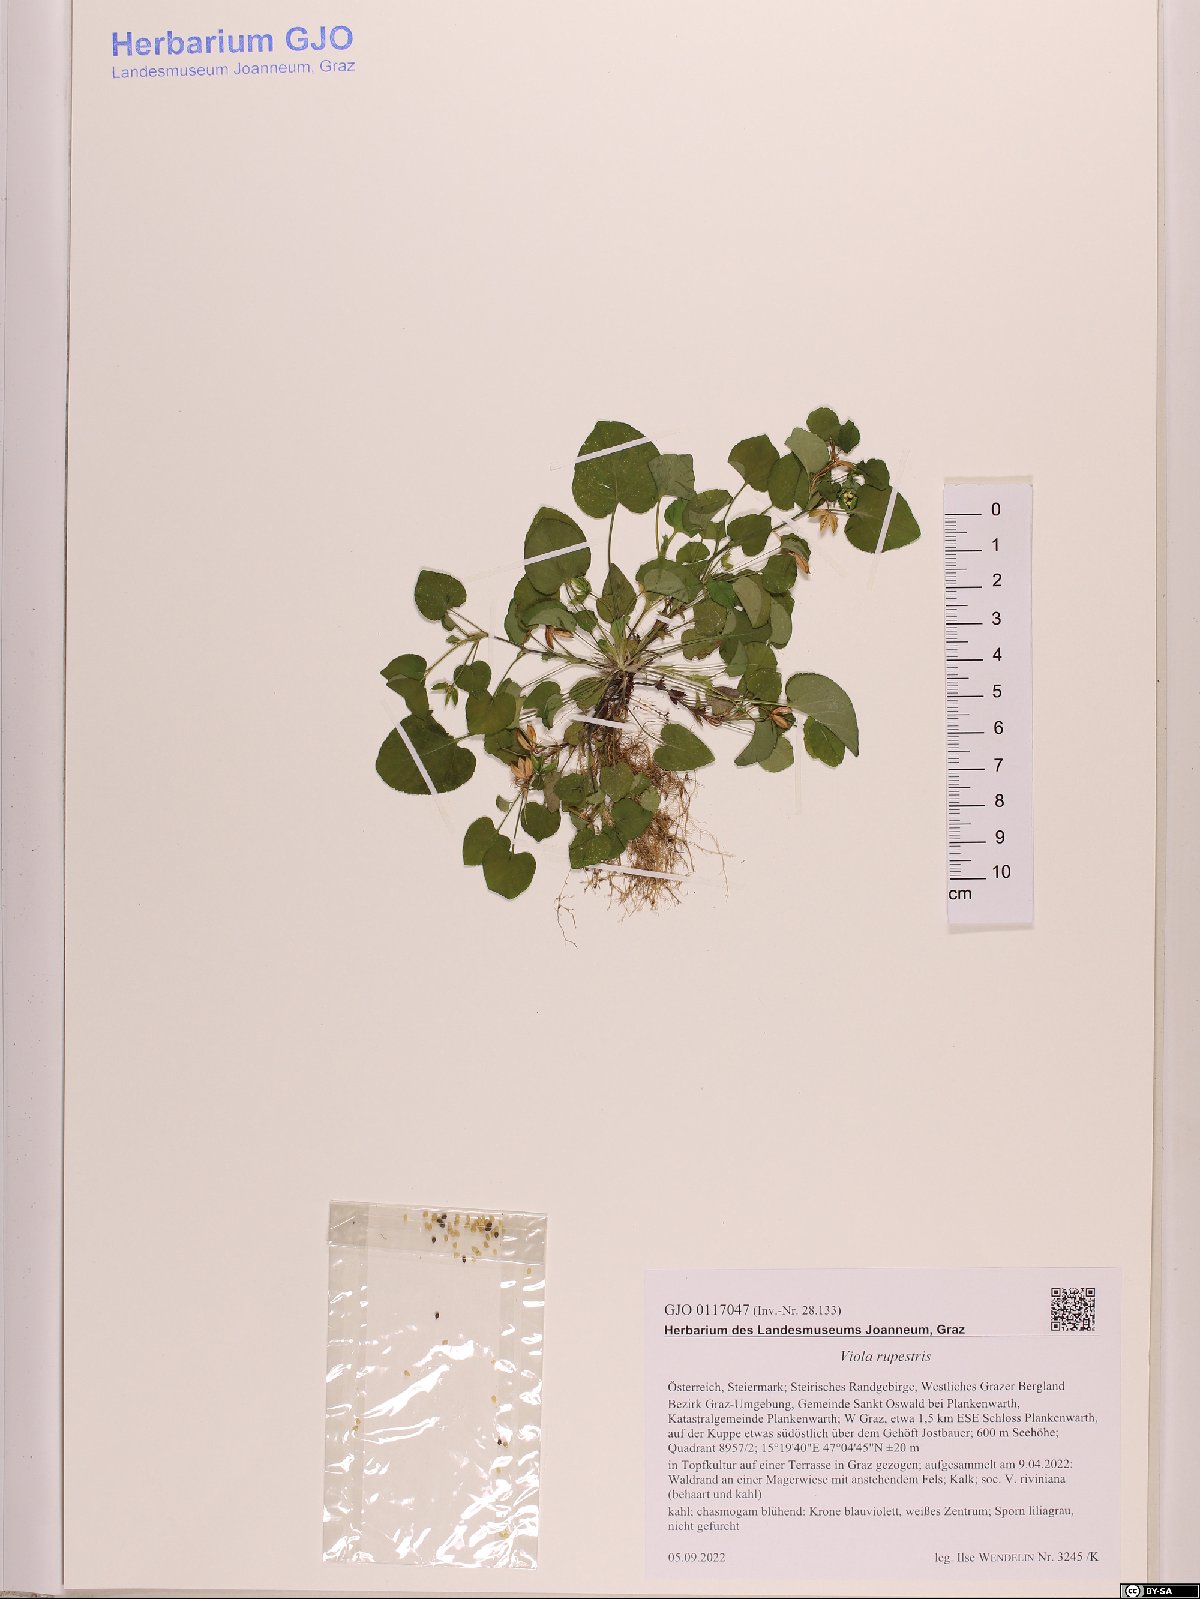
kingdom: Plantae
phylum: Tracheophyta
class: Magnoliopsida
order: Malpighiales
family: Violaceae
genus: Viola
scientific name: Viola rupestris
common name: Teesdale violet
